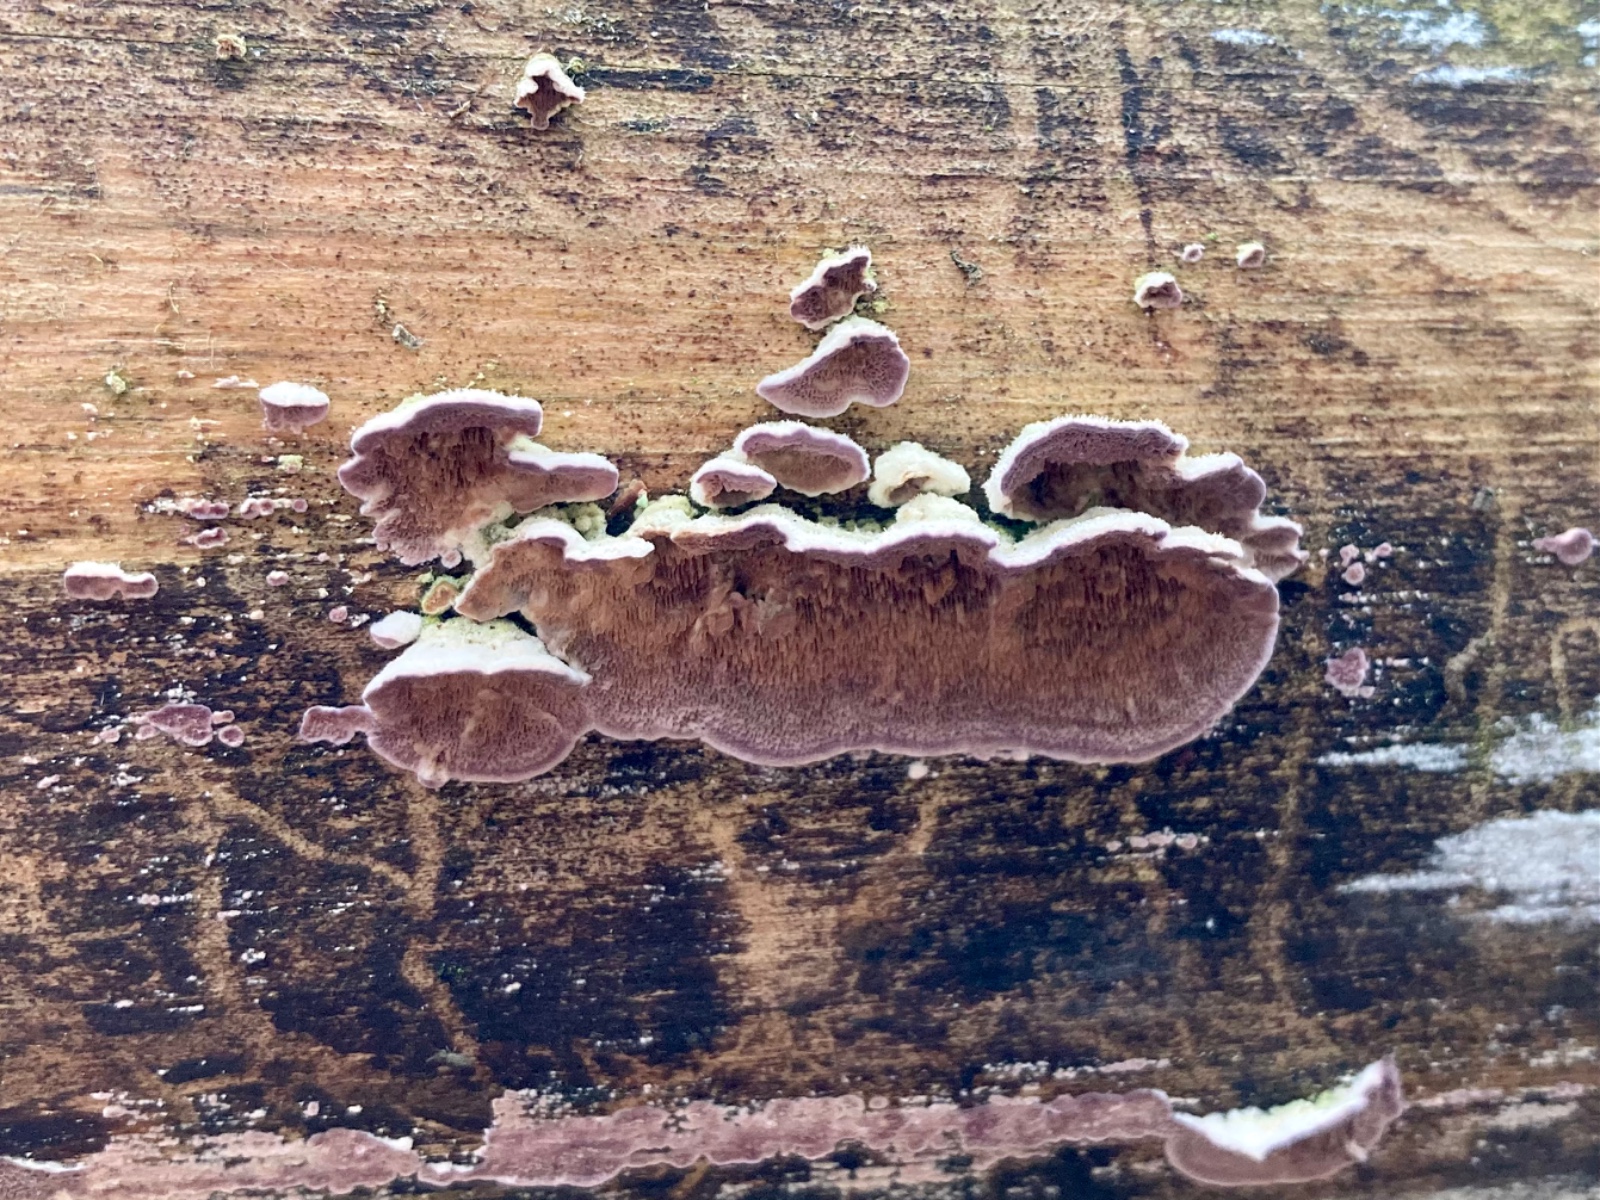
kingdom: Fungi
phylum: Basidiomycota
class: Agaricomycetes
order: Hymenochaetales
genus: Trichaptum
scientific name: Trichaptum abietinum
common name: almindelig violporesvamp
